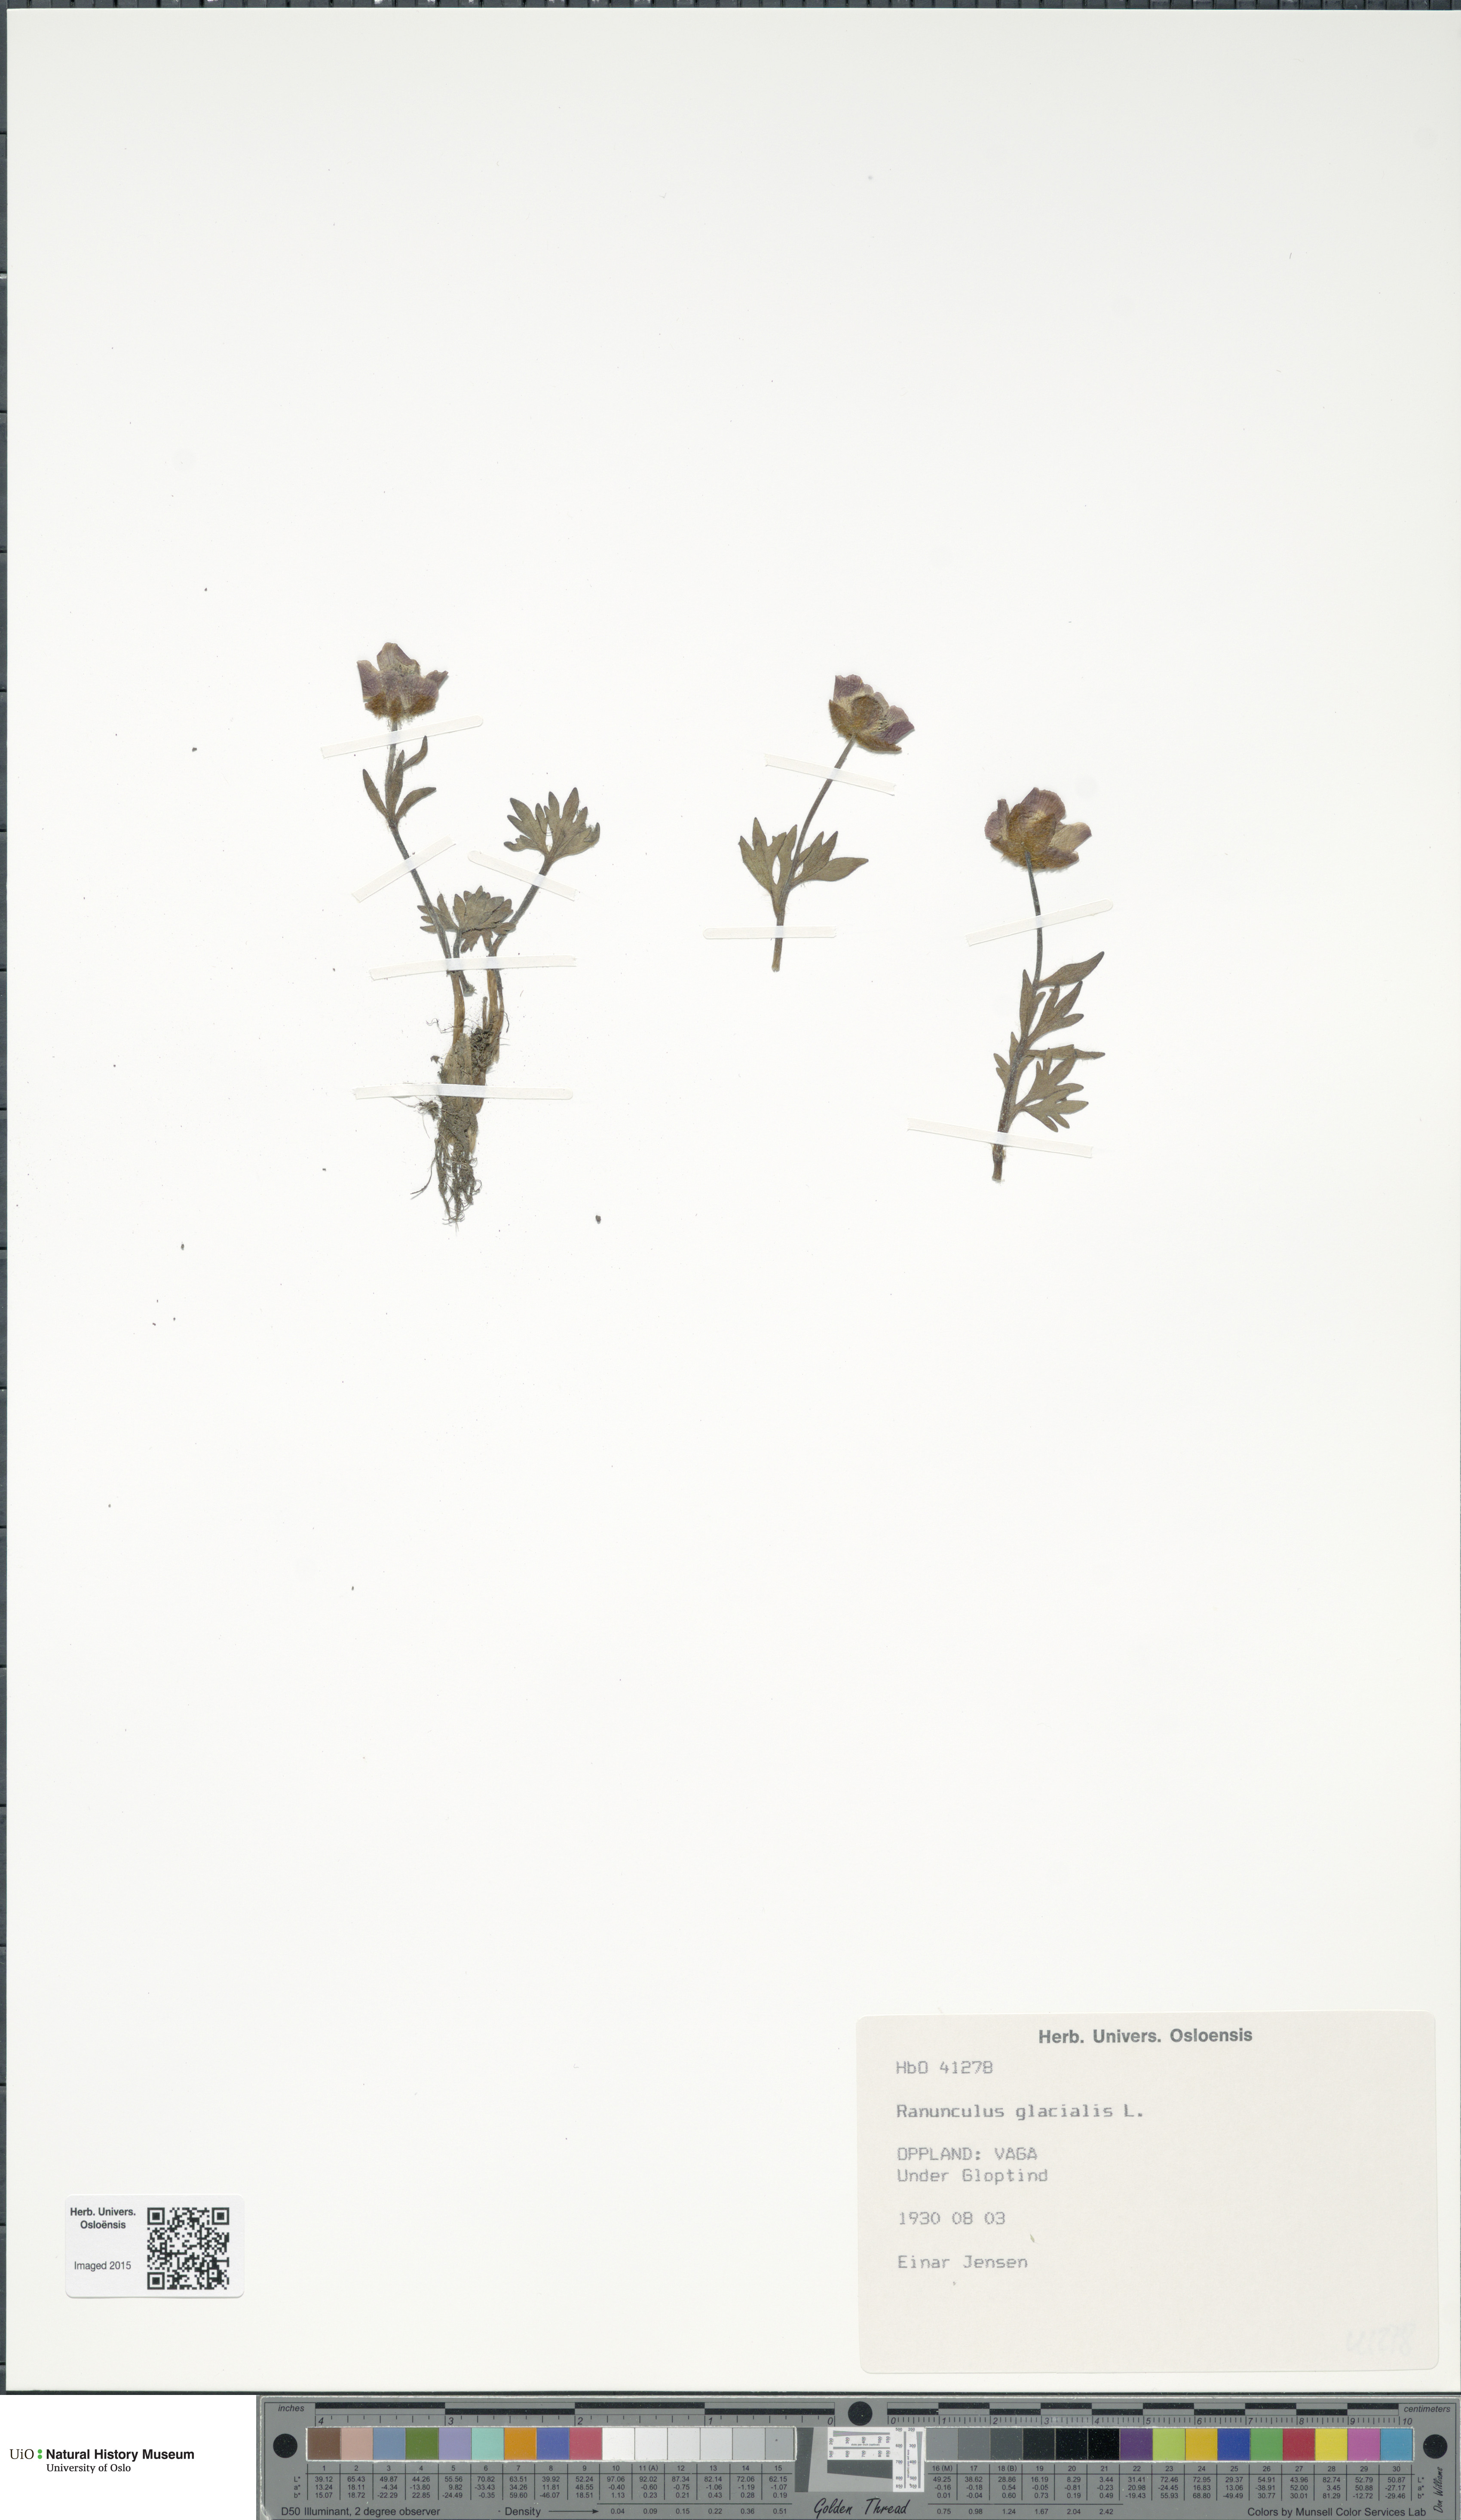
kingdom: Plantae
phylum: Tracheophyta
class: Magnoliopsida
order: Ranunculales
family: Ranunculaceae
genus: Ranunculus
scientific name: Ranunculus glacialis
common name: Glacier buttercup
